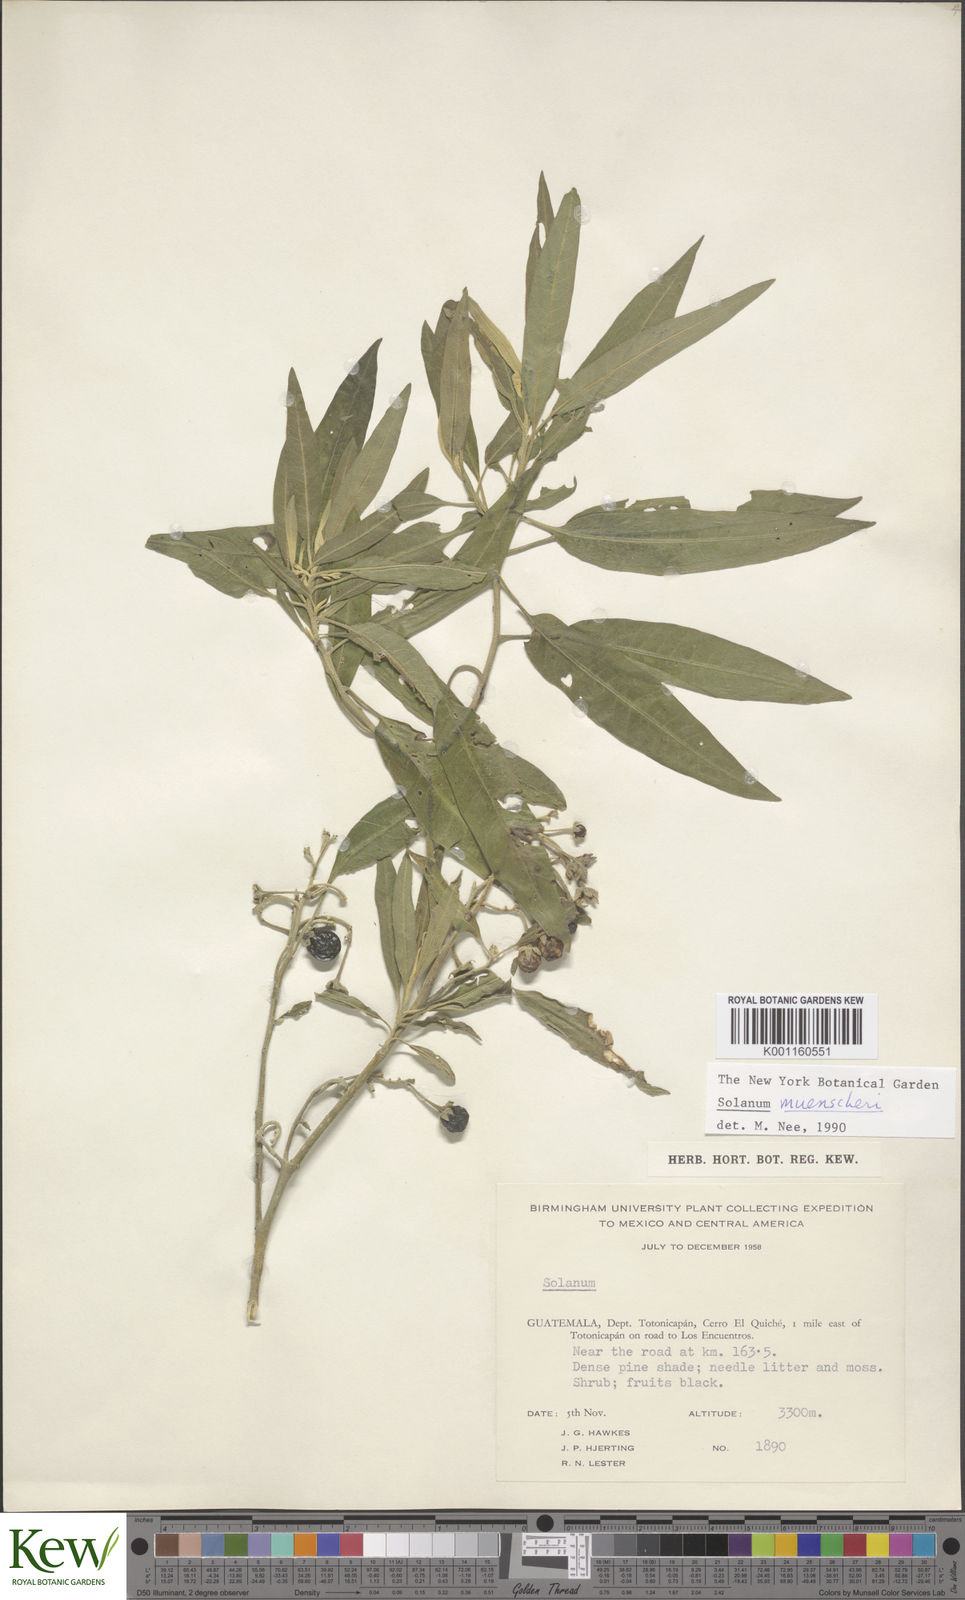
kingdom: Plantae
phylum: Tracheophyta
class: Magnoliopsida
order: Solanales
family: Solanaceae
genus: Solanum
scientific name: Solanum muenscheri
